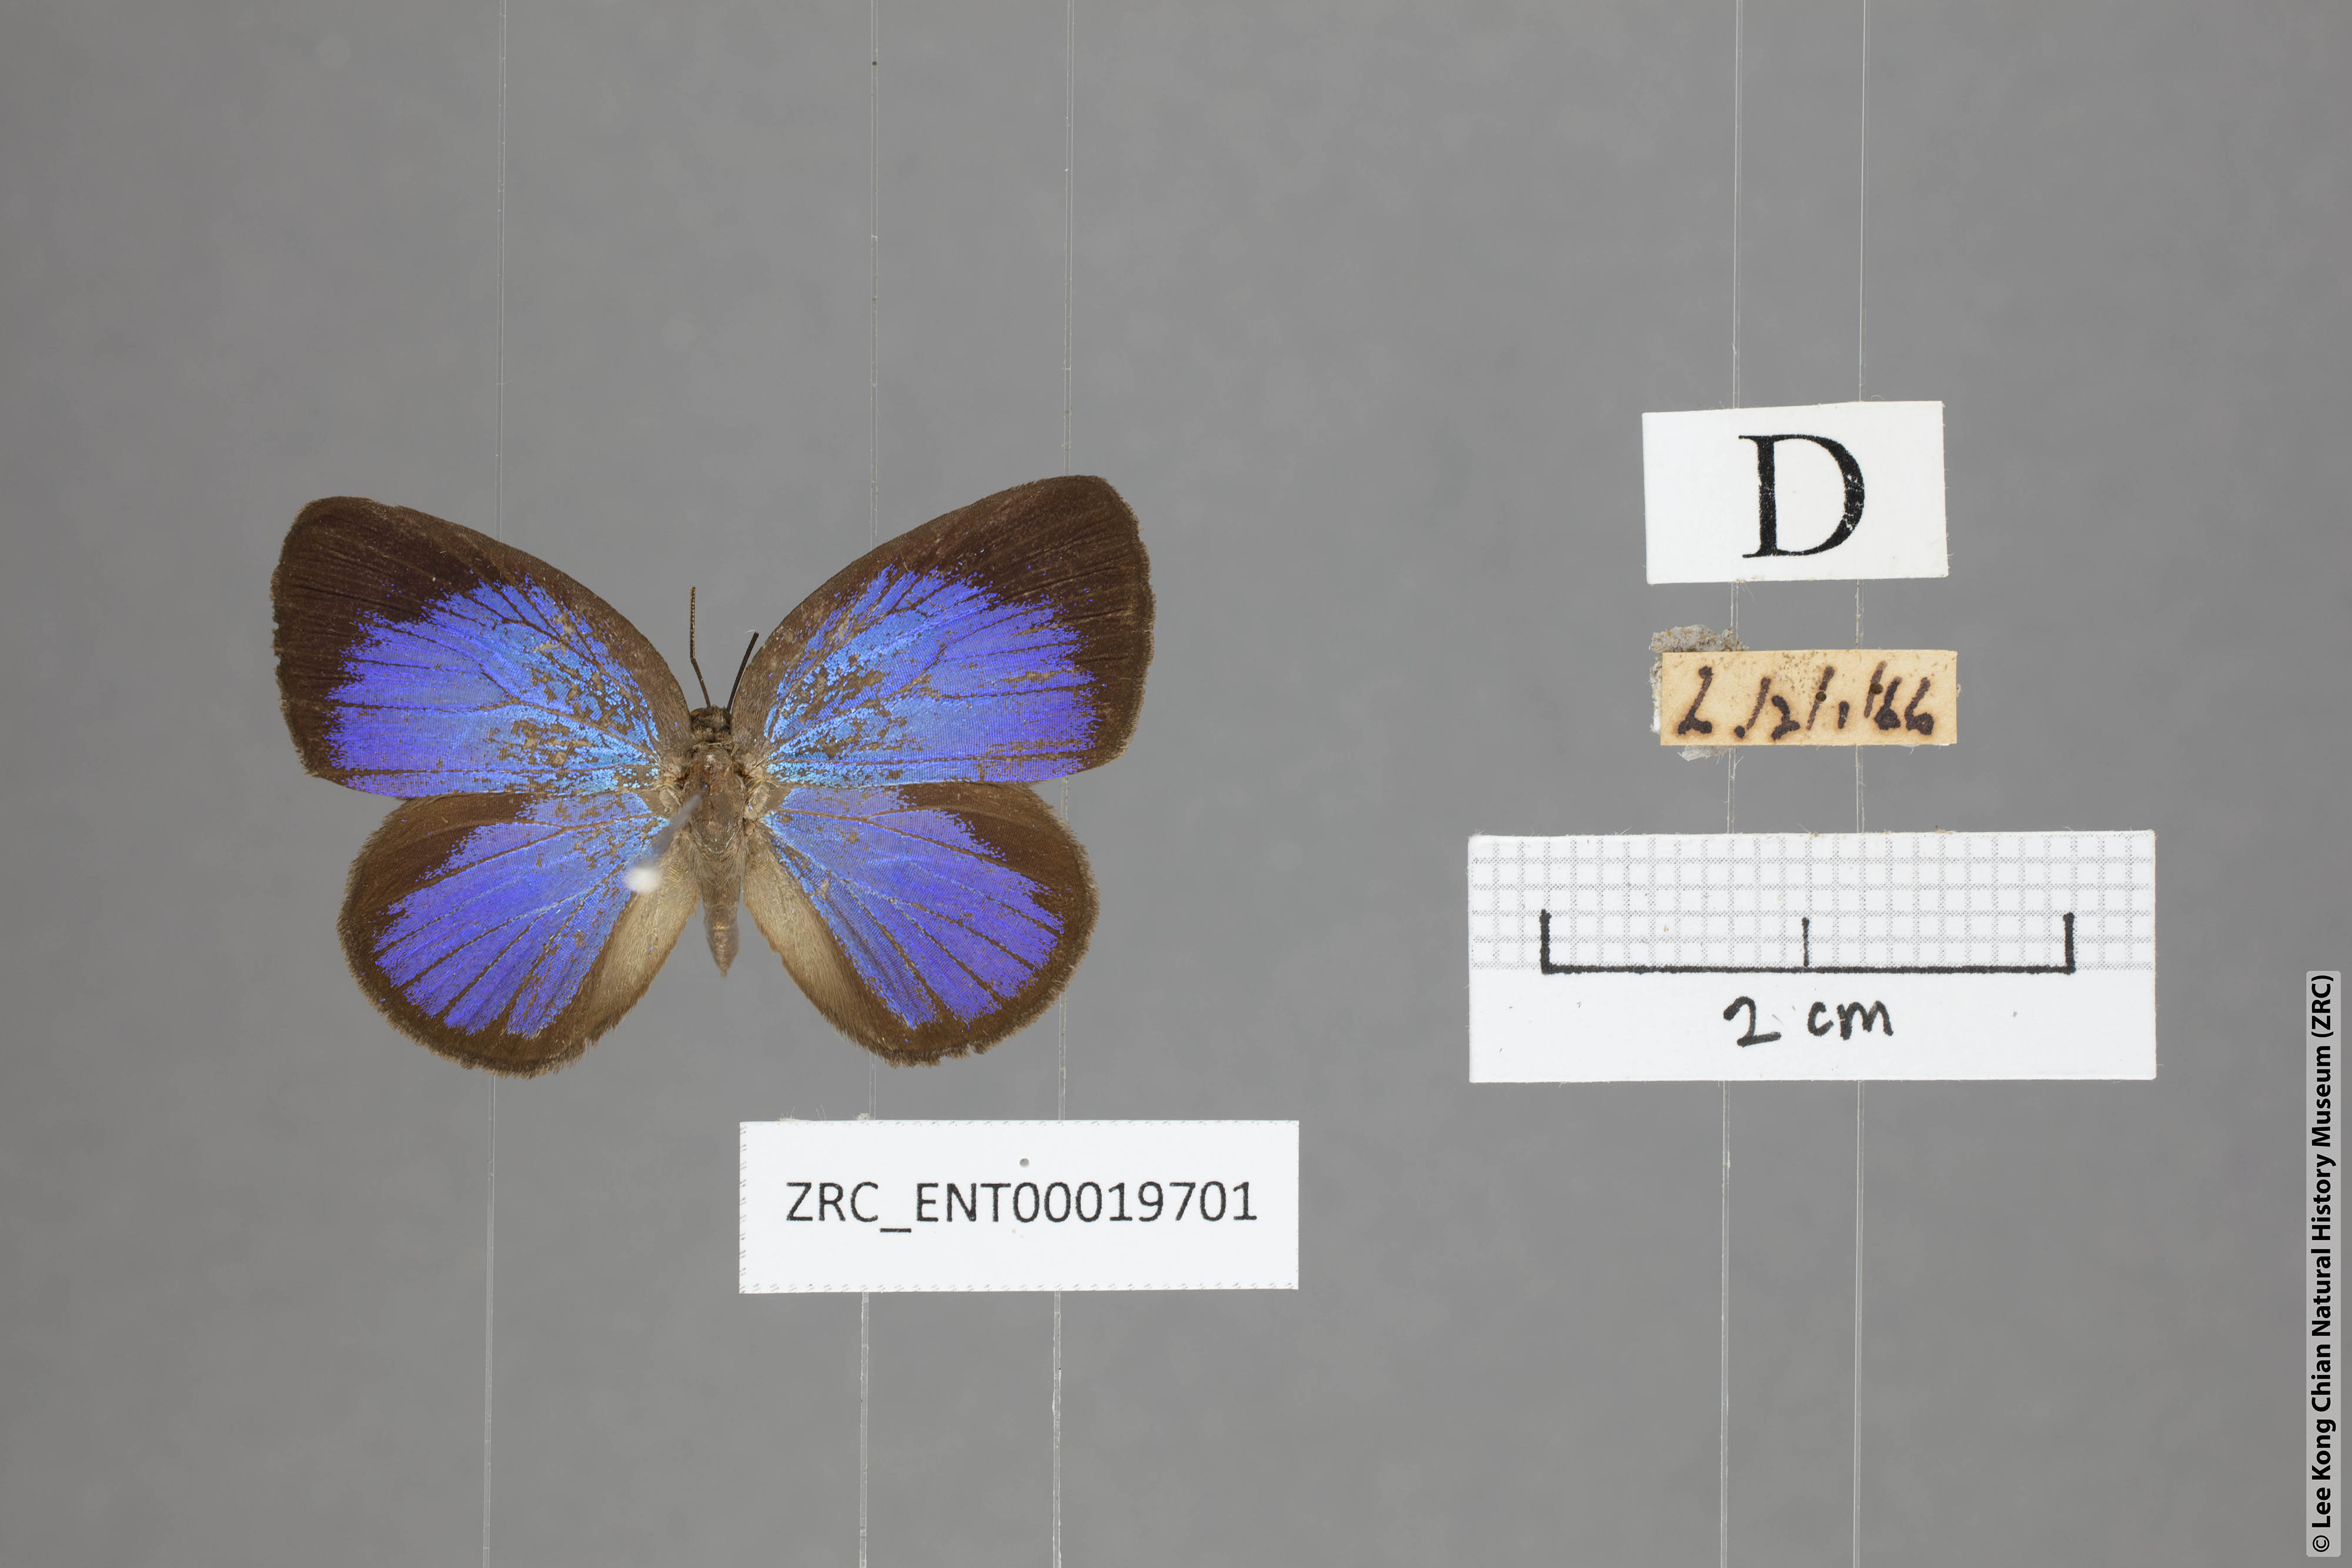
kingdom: Animalia
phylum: Arthropoda
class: Insecta
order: Lepidoptera
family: Lycaenidae
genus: Arhopala
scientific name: Arhopala muta
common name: Mutal oakblue
